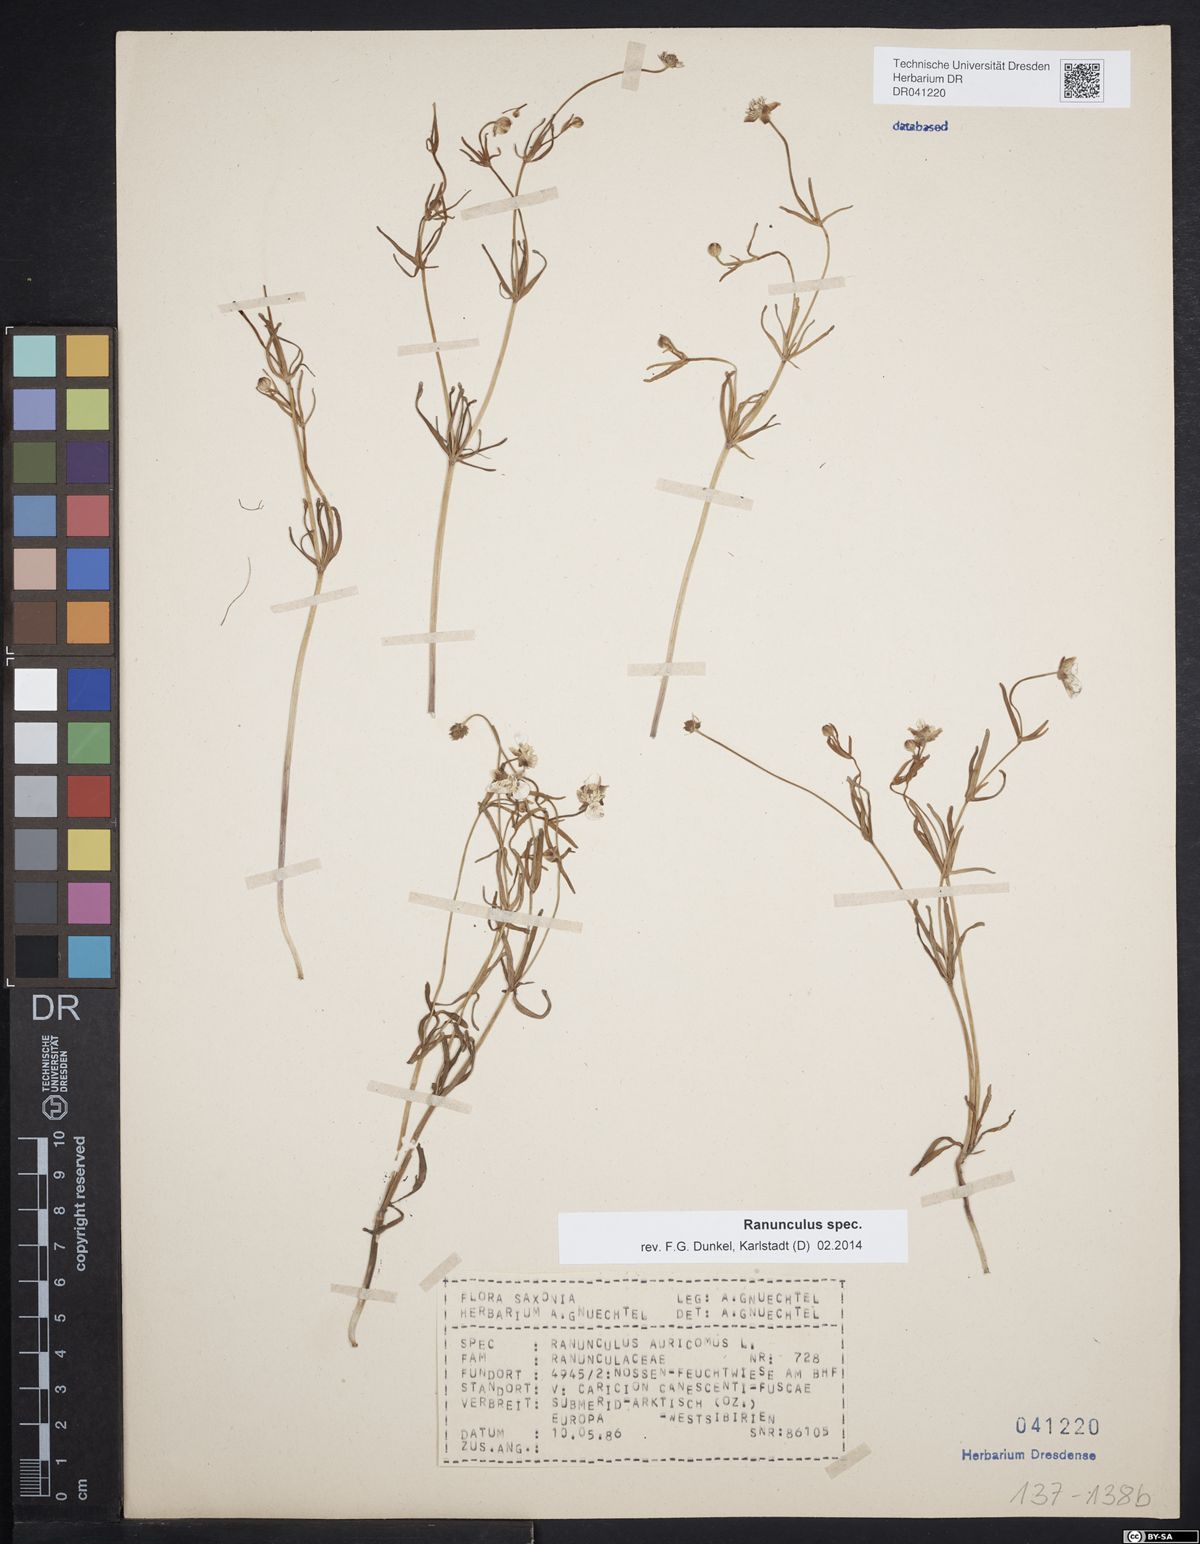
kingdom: Plantae
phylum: Tracheophyta
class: Magnoliopsida
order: Ranunculales
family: Ranunculaceae
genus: Ranunculus
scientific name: Ranunculus auricomus
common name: Goldilocks buttercup
